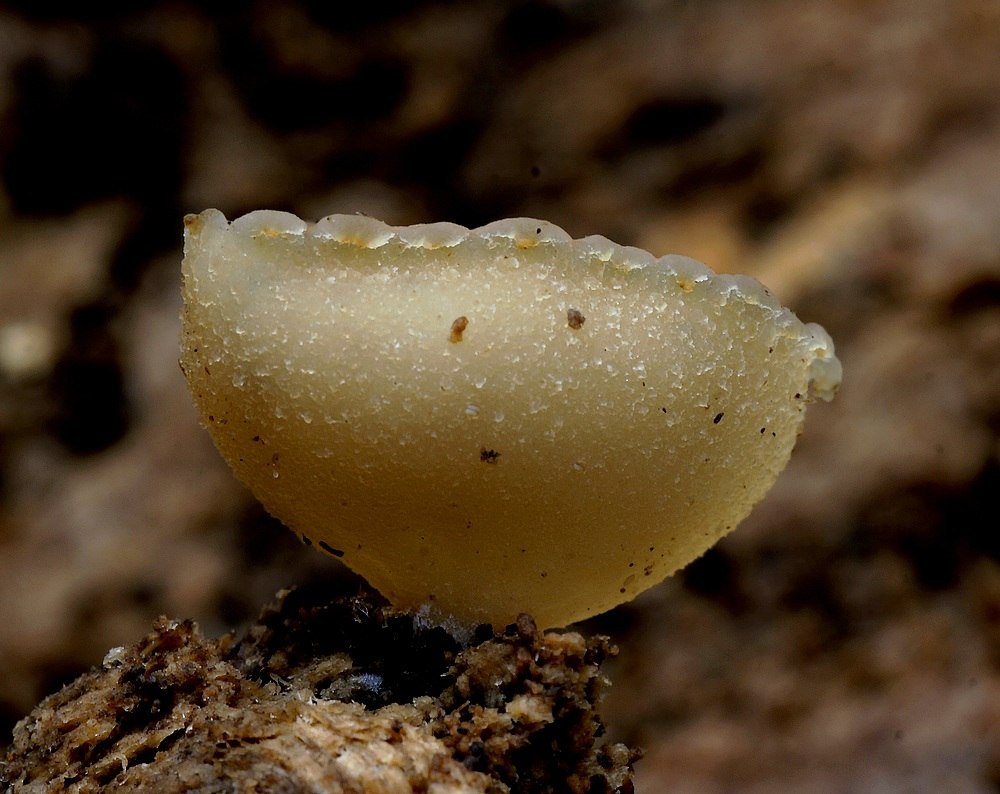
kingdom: Fungi
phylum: Ascomycota
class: Pezizomycetes
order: Pezizales
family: Pezizaceae
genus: Peziza
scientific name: Peziza varia
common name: Ved-bægersvamp
